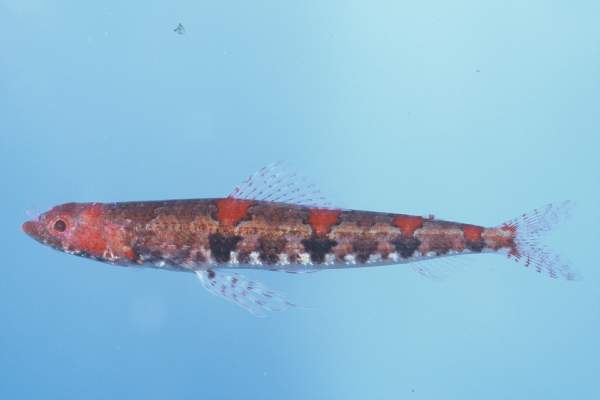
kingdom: Animalia
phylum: Chordata
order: Aulopiformes
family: Synodontidae
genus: Synodus
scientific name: Synodus binotatus
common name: Twospot lizardfish
